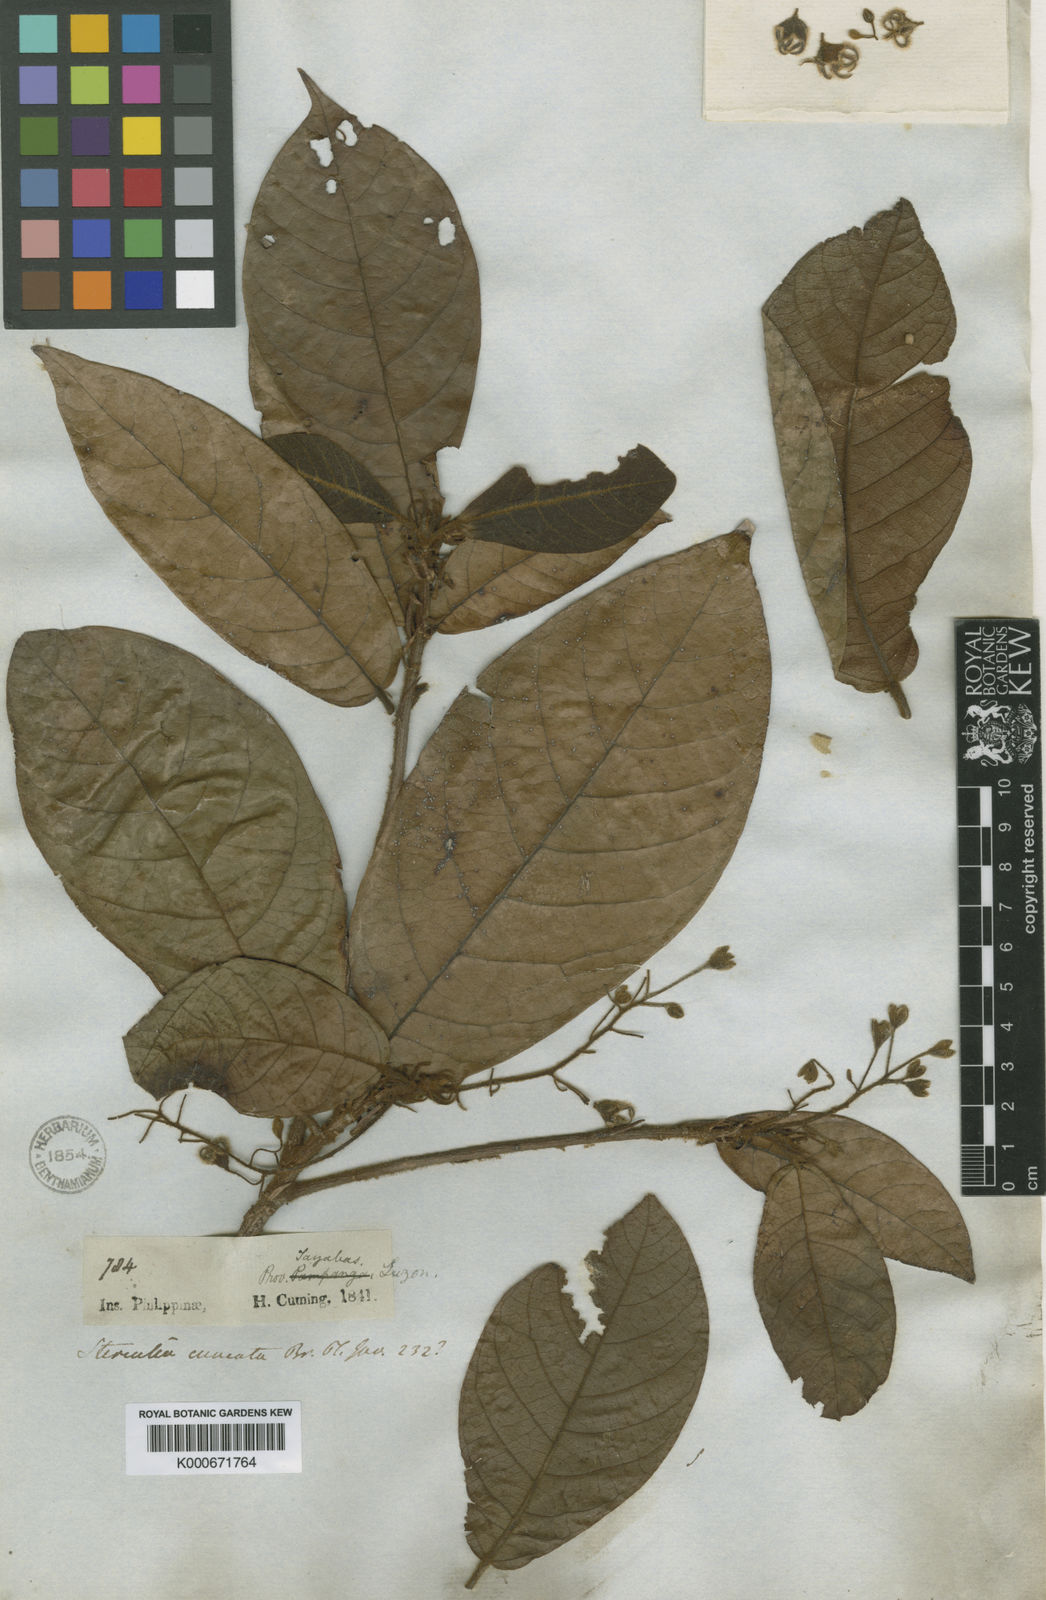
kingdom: Plantae
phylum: Tracheophyta
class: Magnoliopsida
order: Malvales
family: Malvaceae
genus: Sterculia
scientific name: Sterculia rubiginosa
